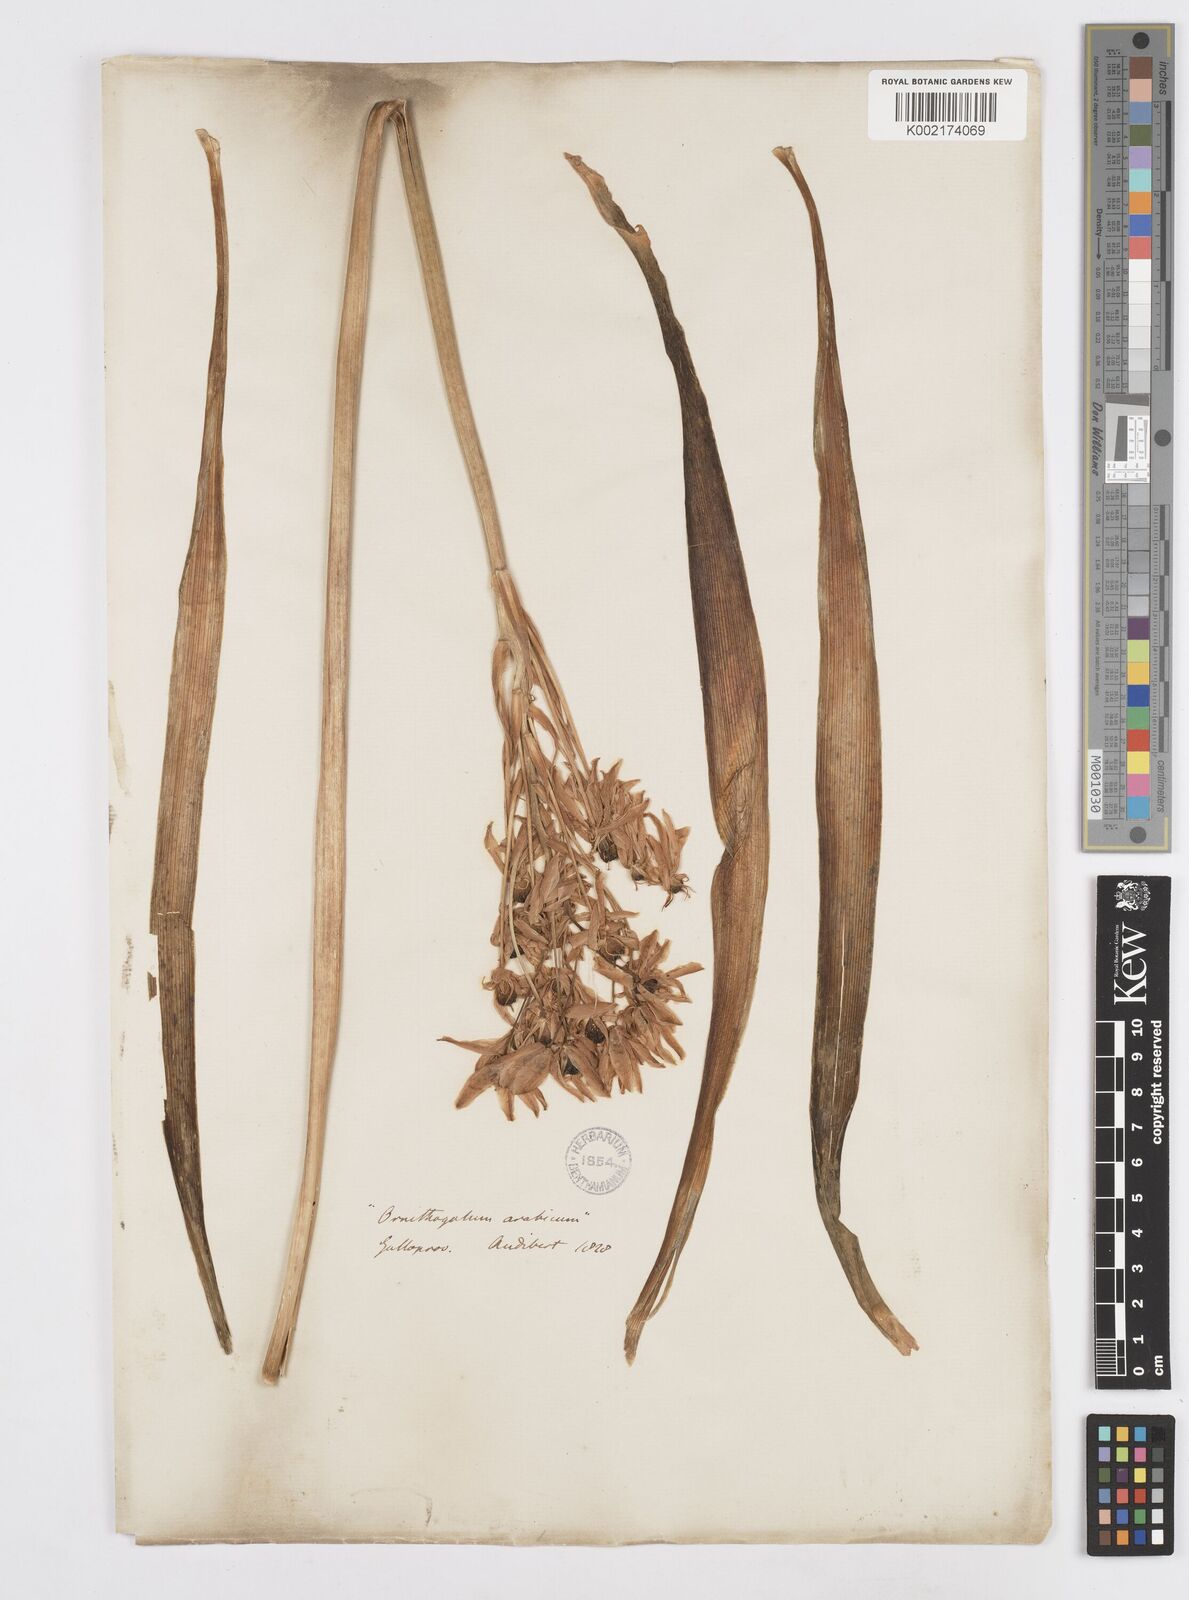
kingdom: Plantae
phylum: Tracheophyta
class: Liliopsida
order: Asparagales
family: Asparagaceae
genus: Ornithogalum
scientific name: Ornithogalum arabicum
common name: Arabian starflower
